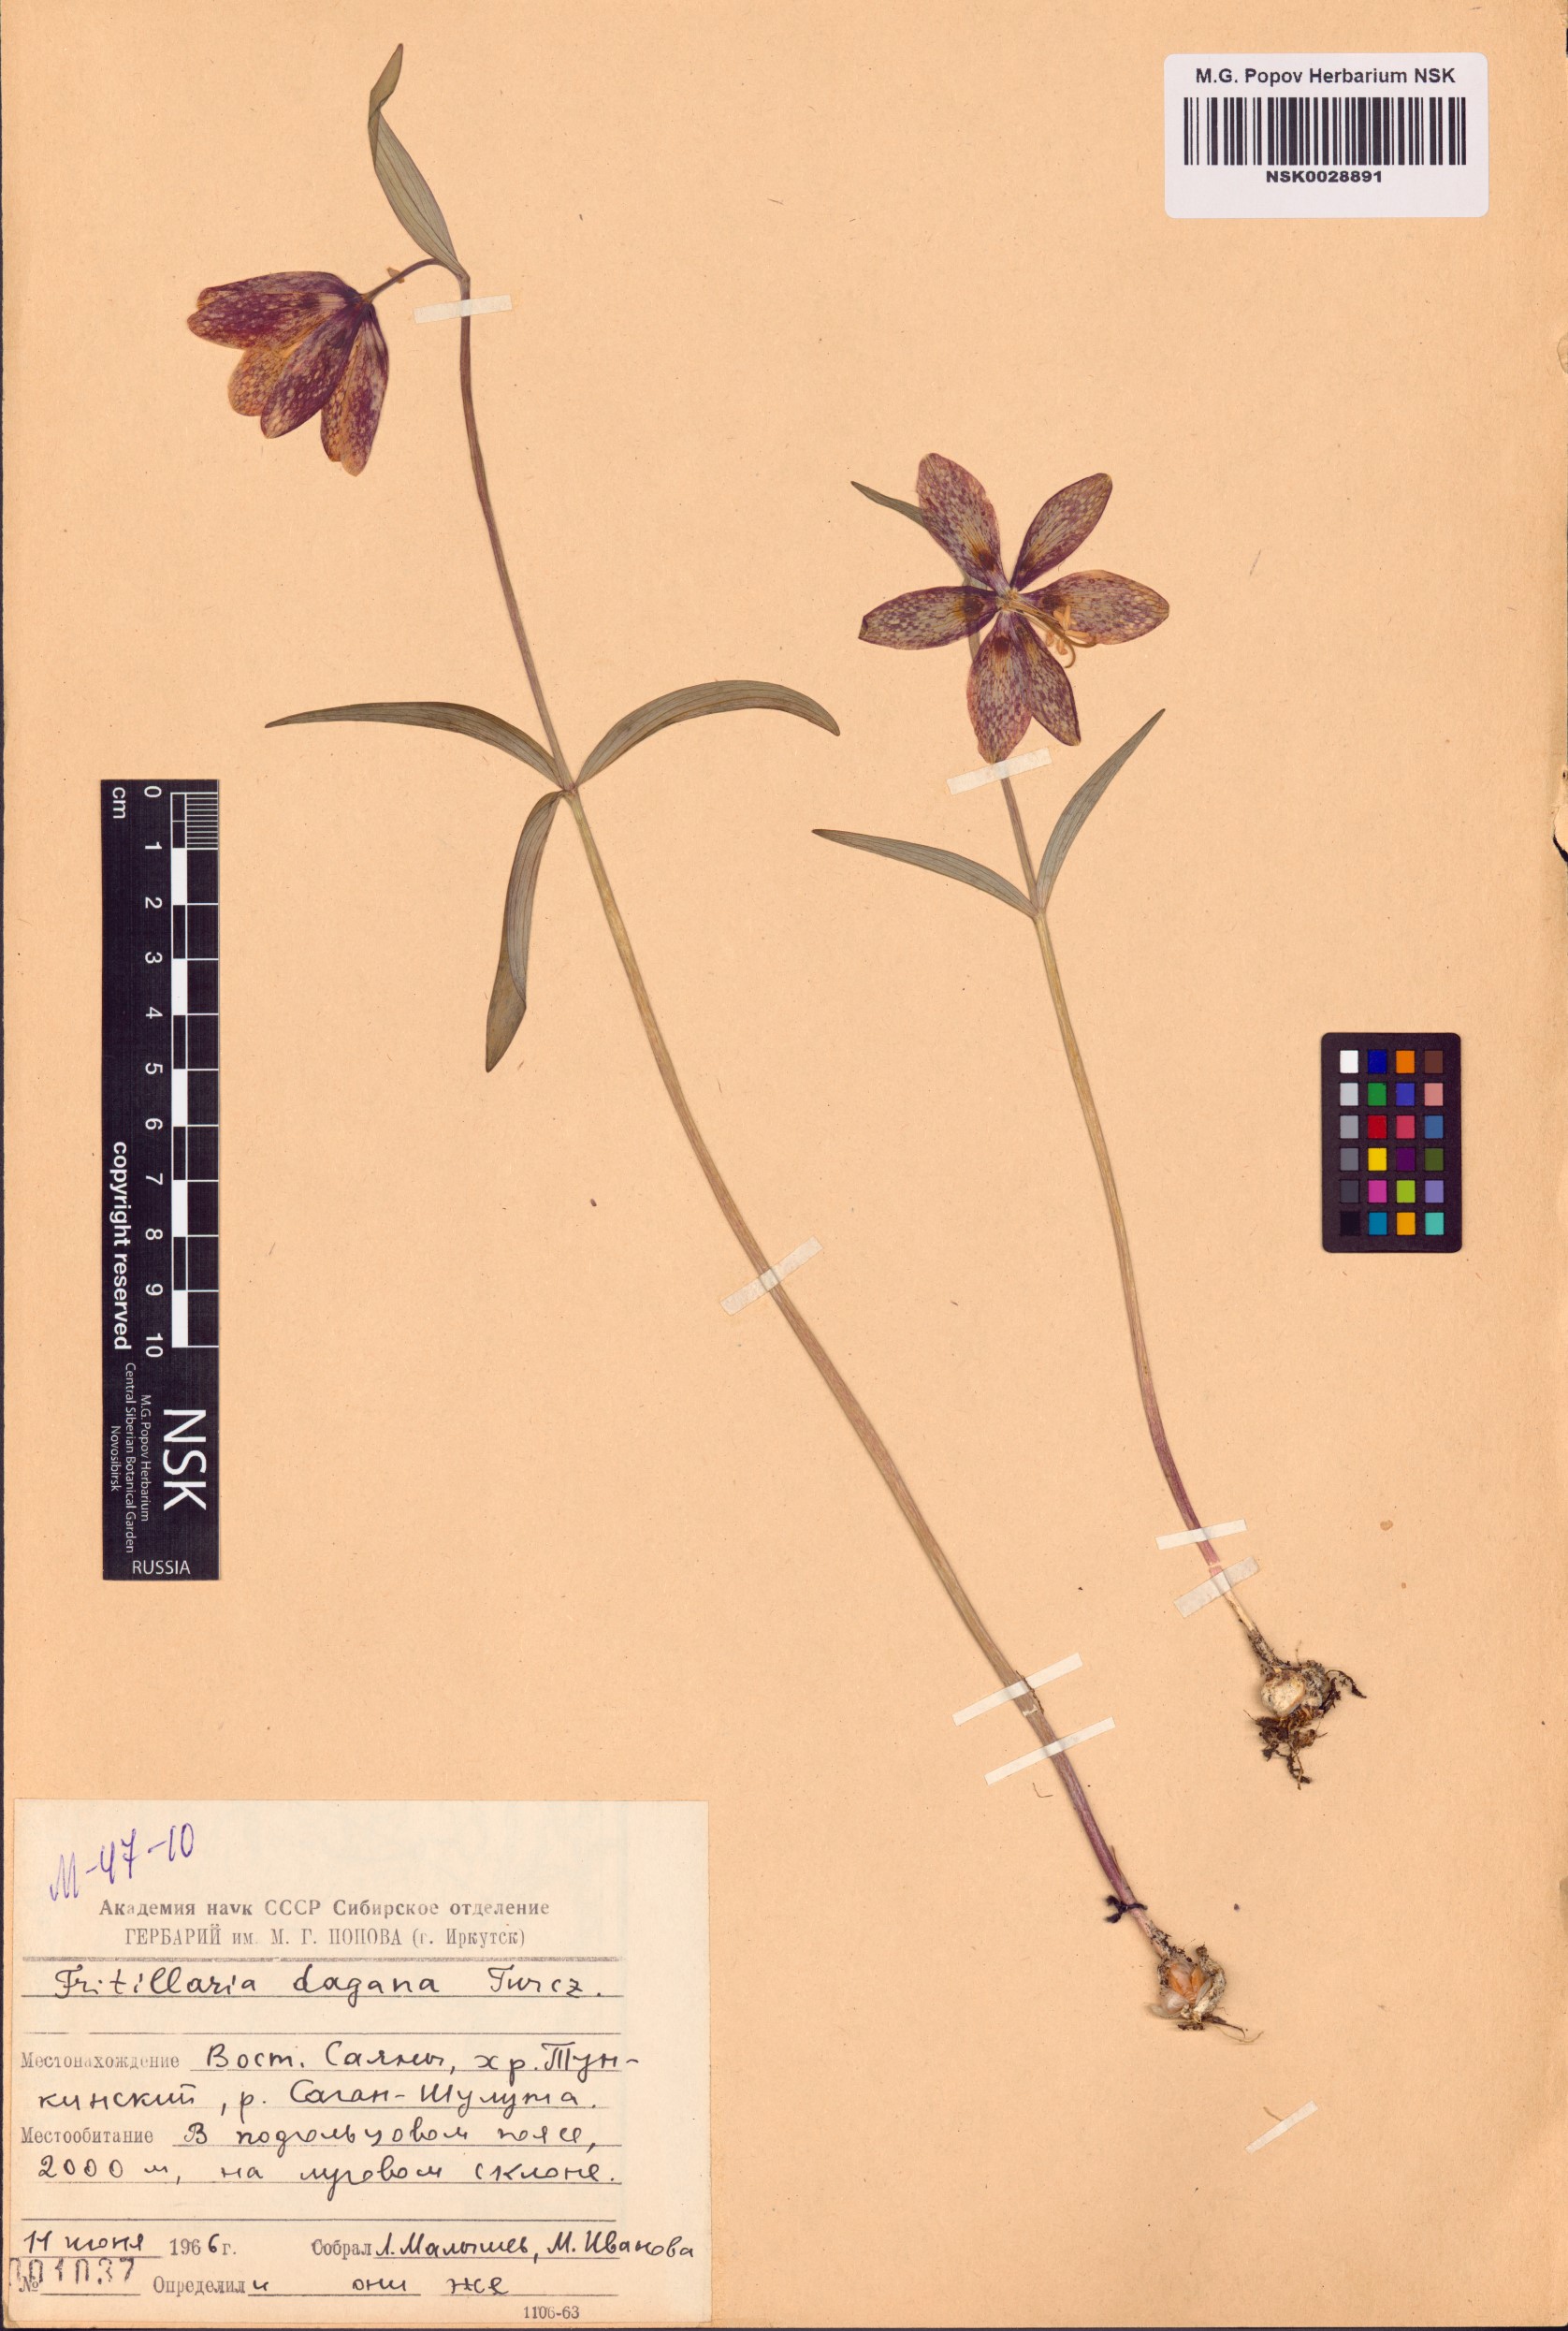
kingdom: Plantae
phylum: Tracheophyta
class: Liliopsida
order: Liliales
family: Liliaceae
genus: Fritillaria
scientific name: Fritillaria dagana
